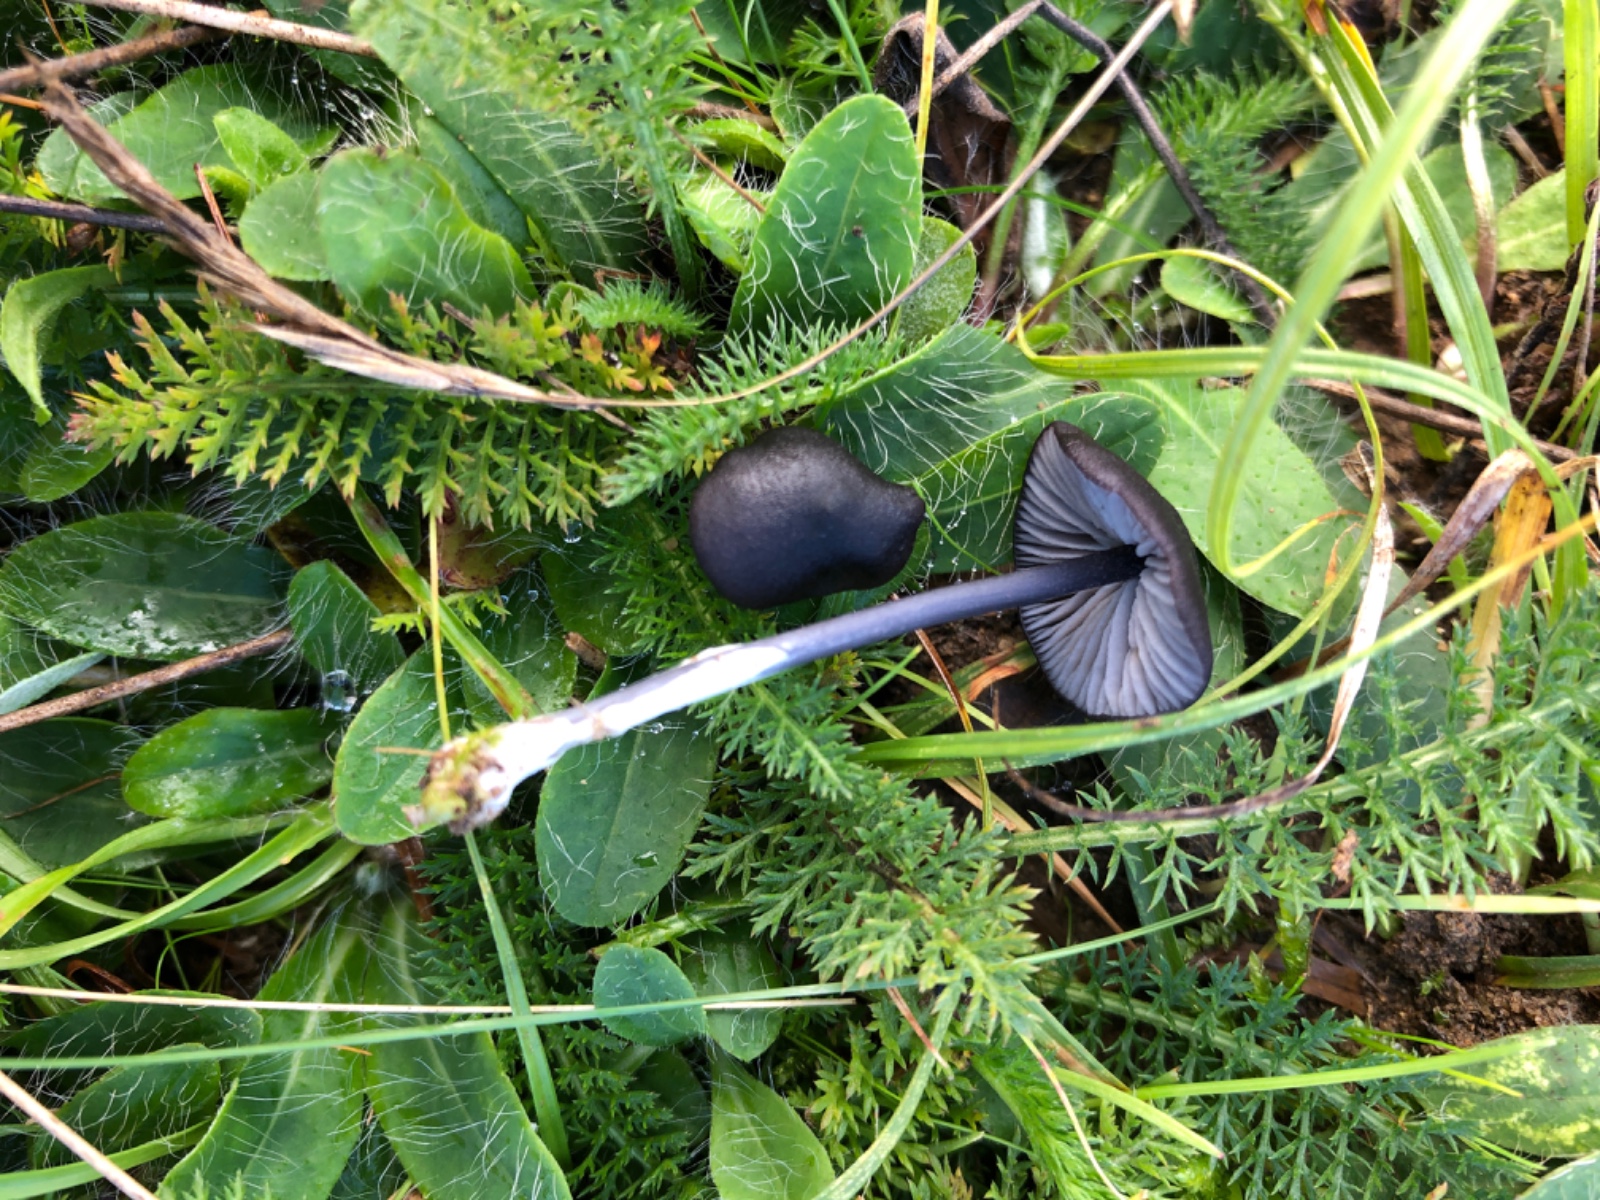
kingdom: Fungi
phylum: Basidiomycota
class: Agaricomycetes
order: Agaricales
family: Entolomataceae
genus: Entoloma
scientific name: Entoloma chalybeum
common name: blåbladet rødblad
